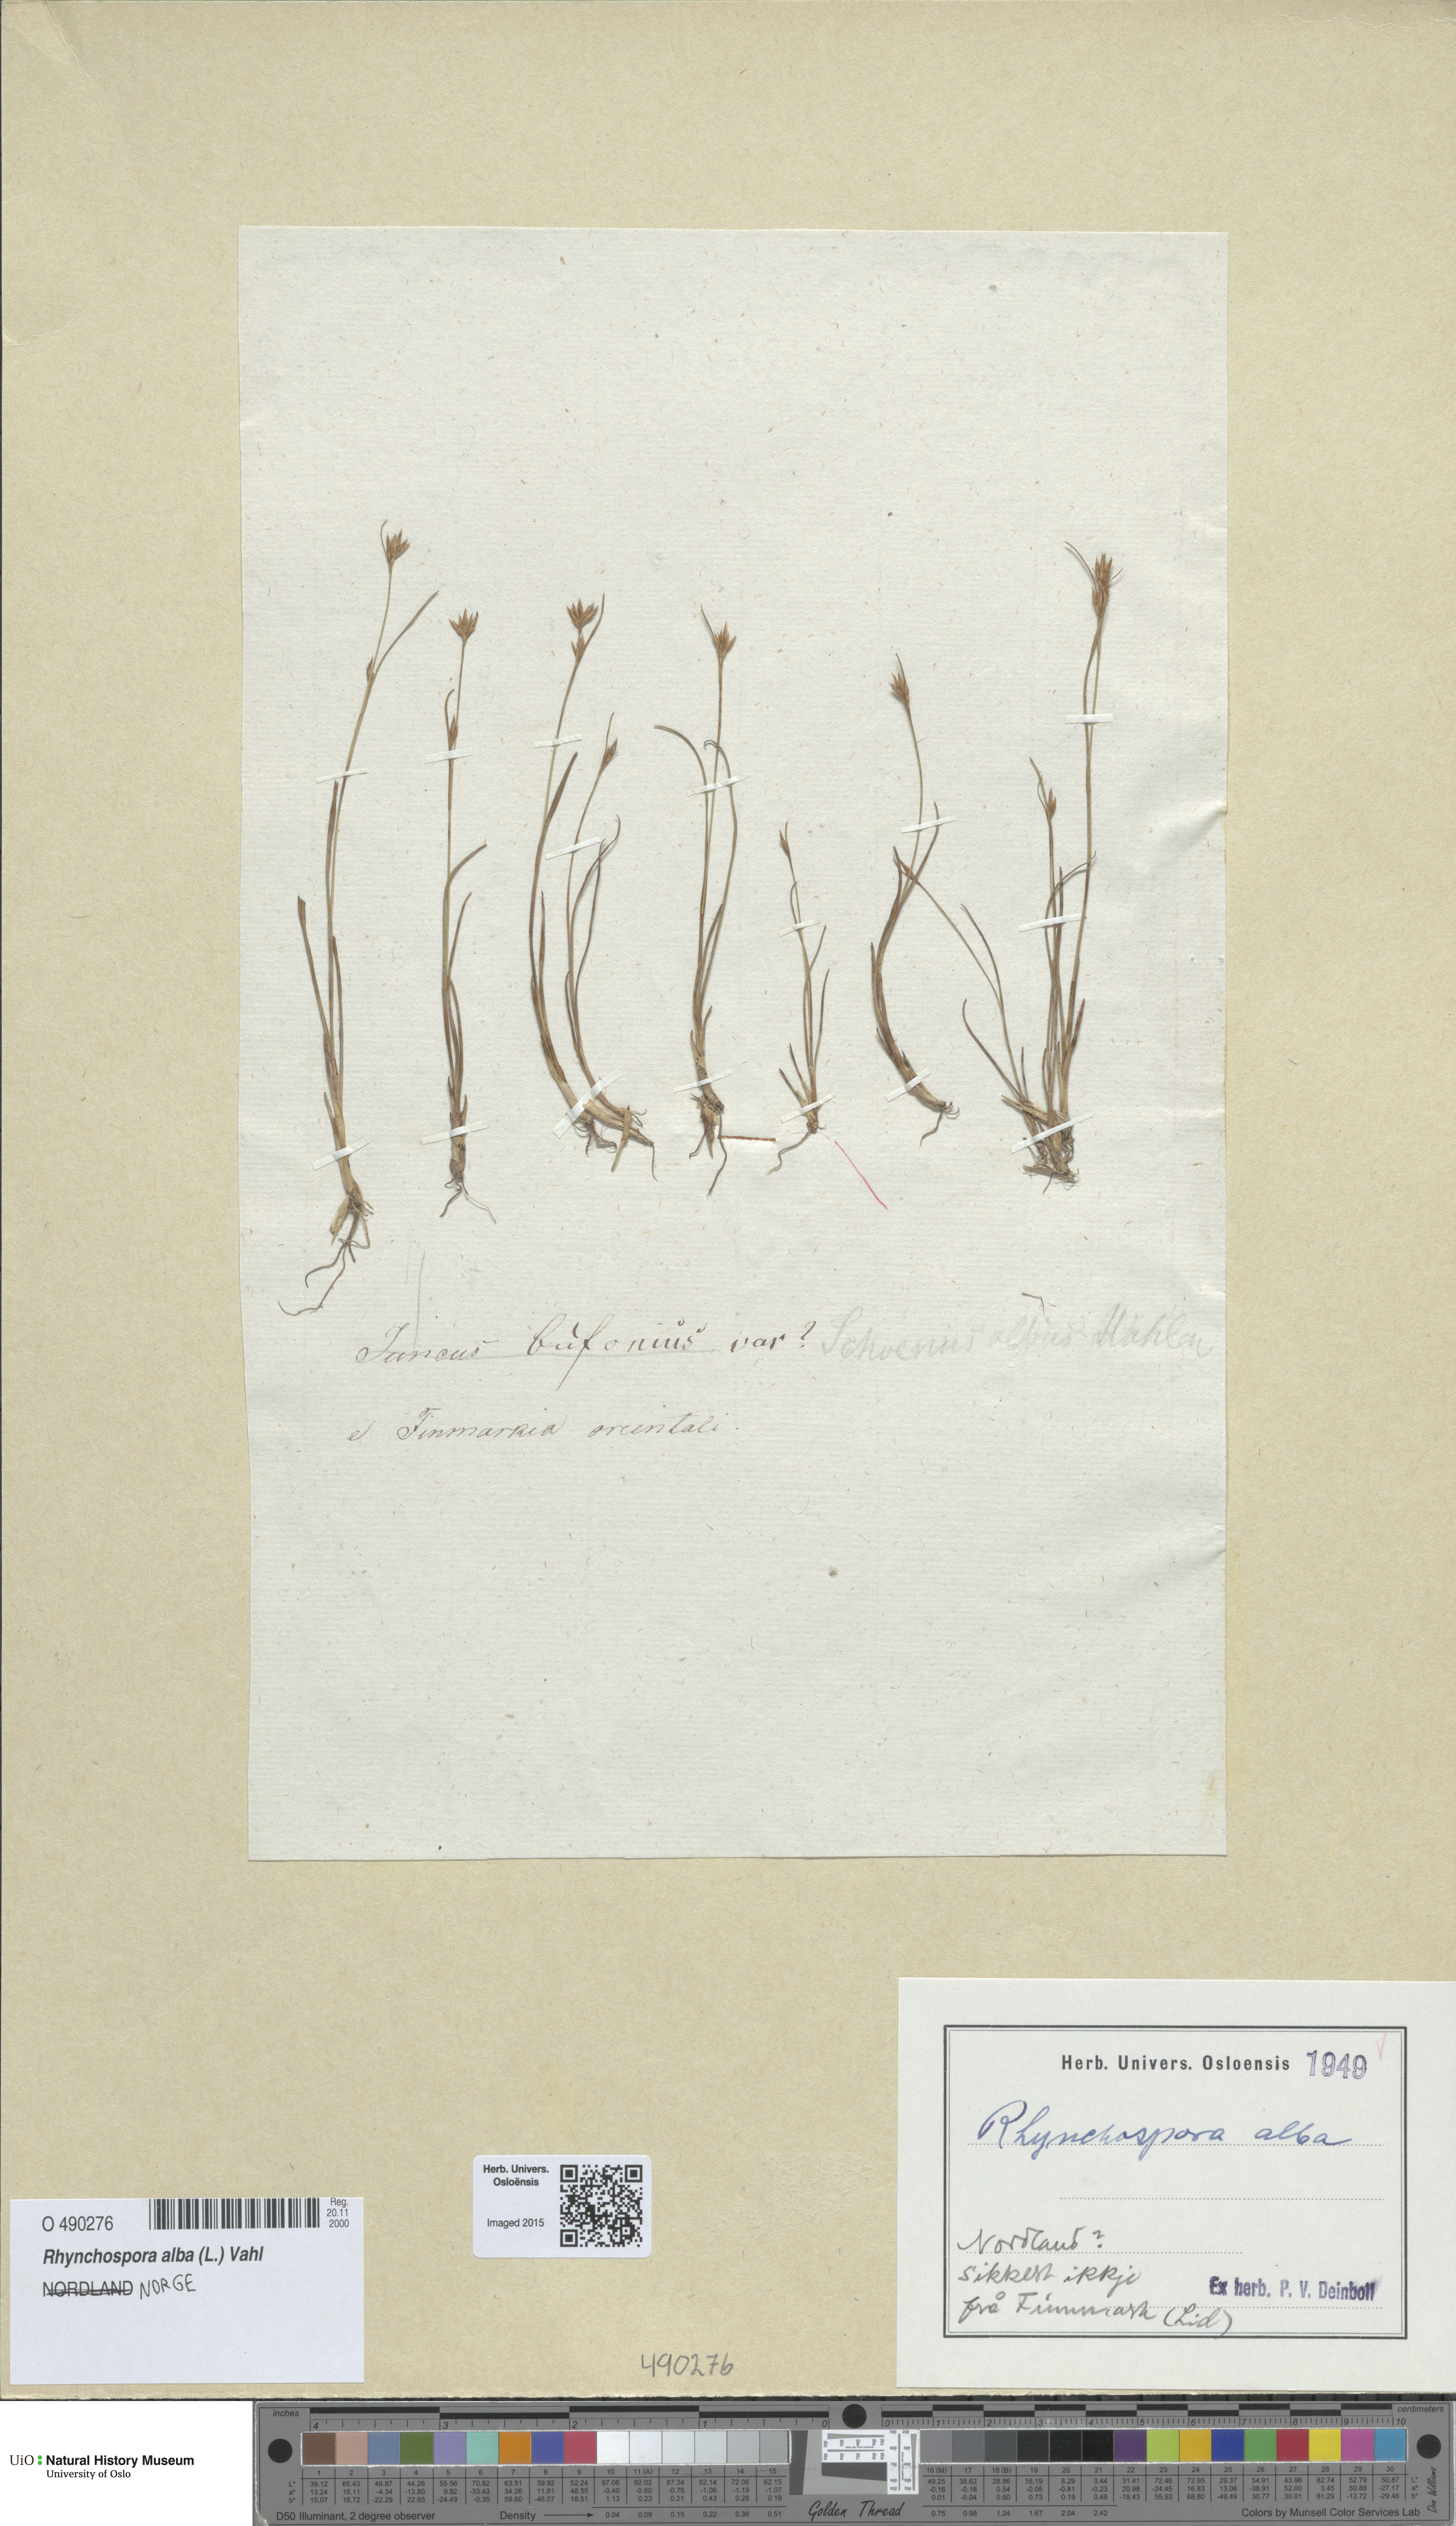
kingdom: Plantae
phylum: Tracheophyta
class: Liliopsida
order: Poales
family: Cyperaceae
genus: Rhynchospora
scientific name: Rhynchospora alba
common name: White beak-sedge
